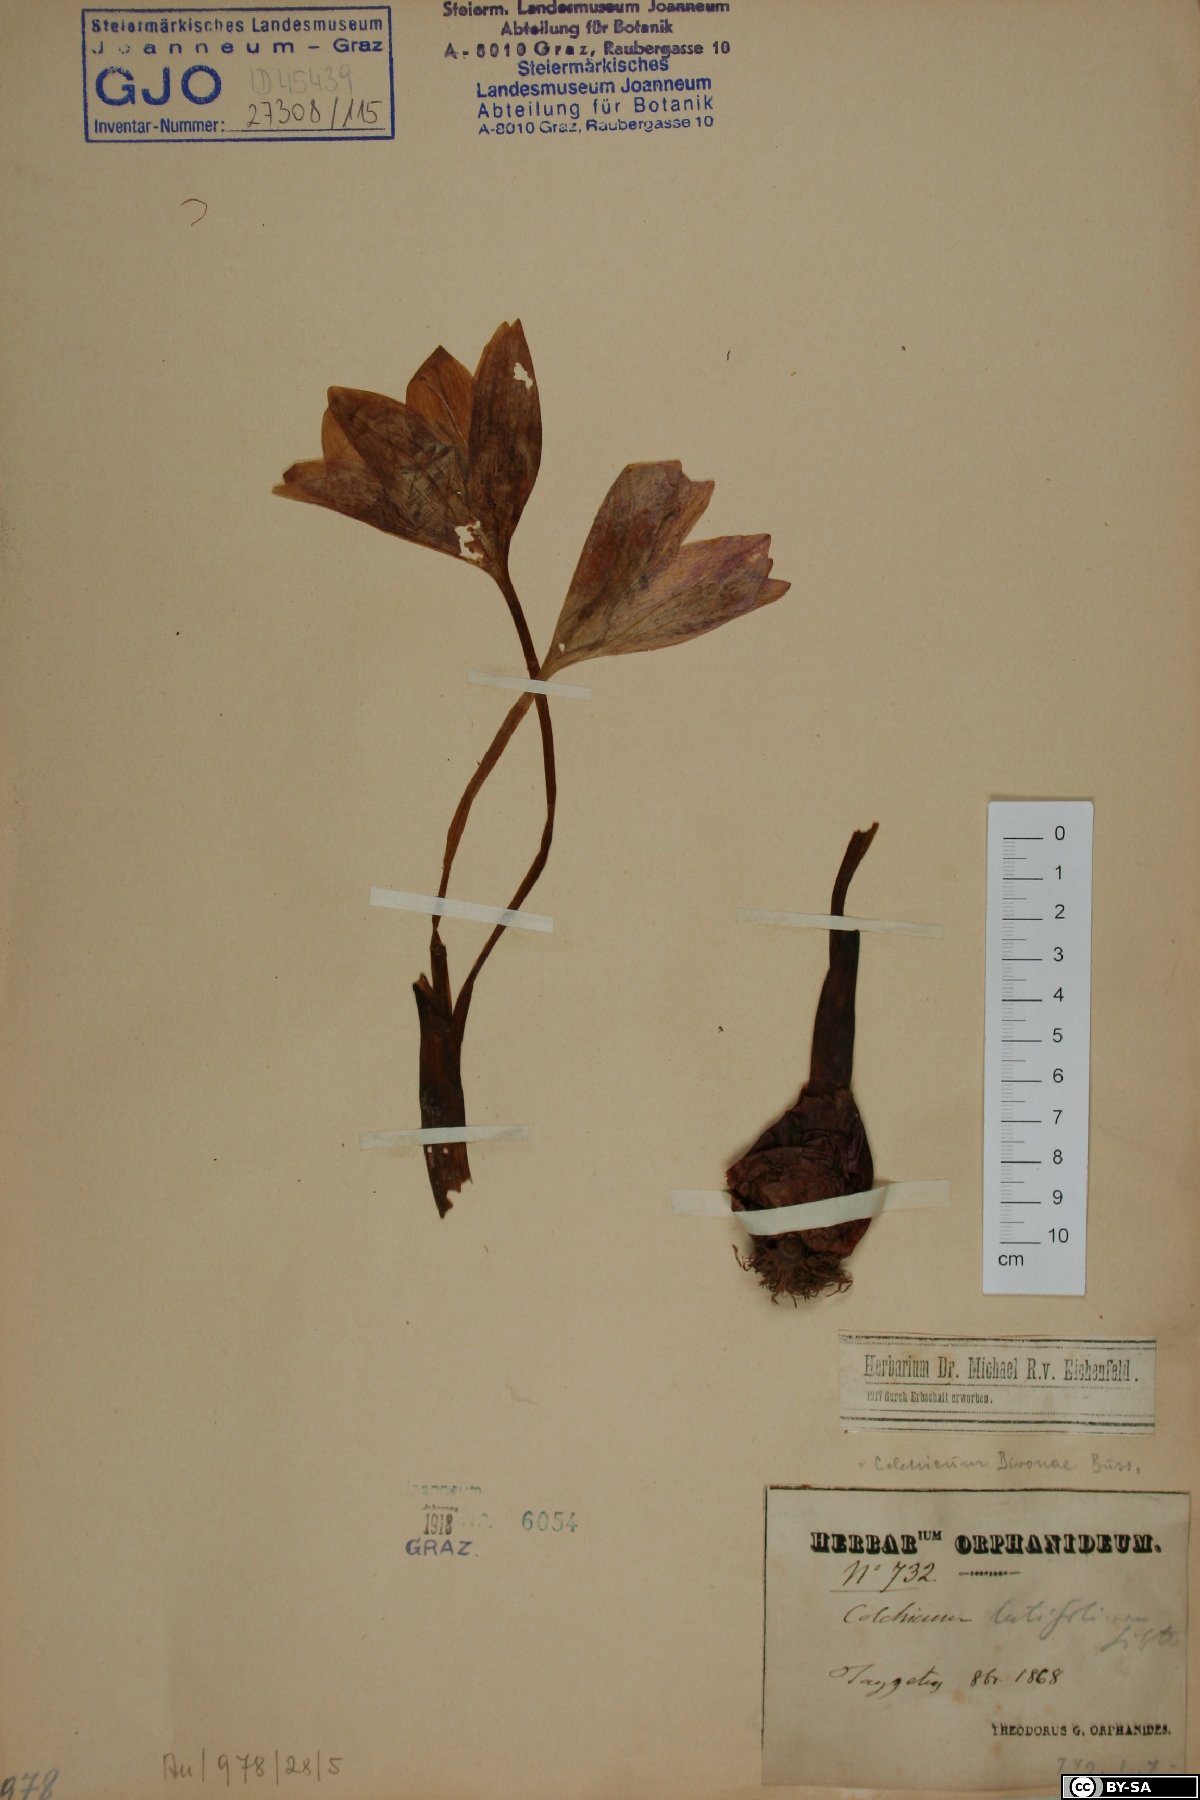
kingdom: Plantae
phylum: Tracheophyta
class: Liliopsida
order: Liliales
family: Colchicaceae
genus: Colchicum
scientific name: Colchicum bivonae
